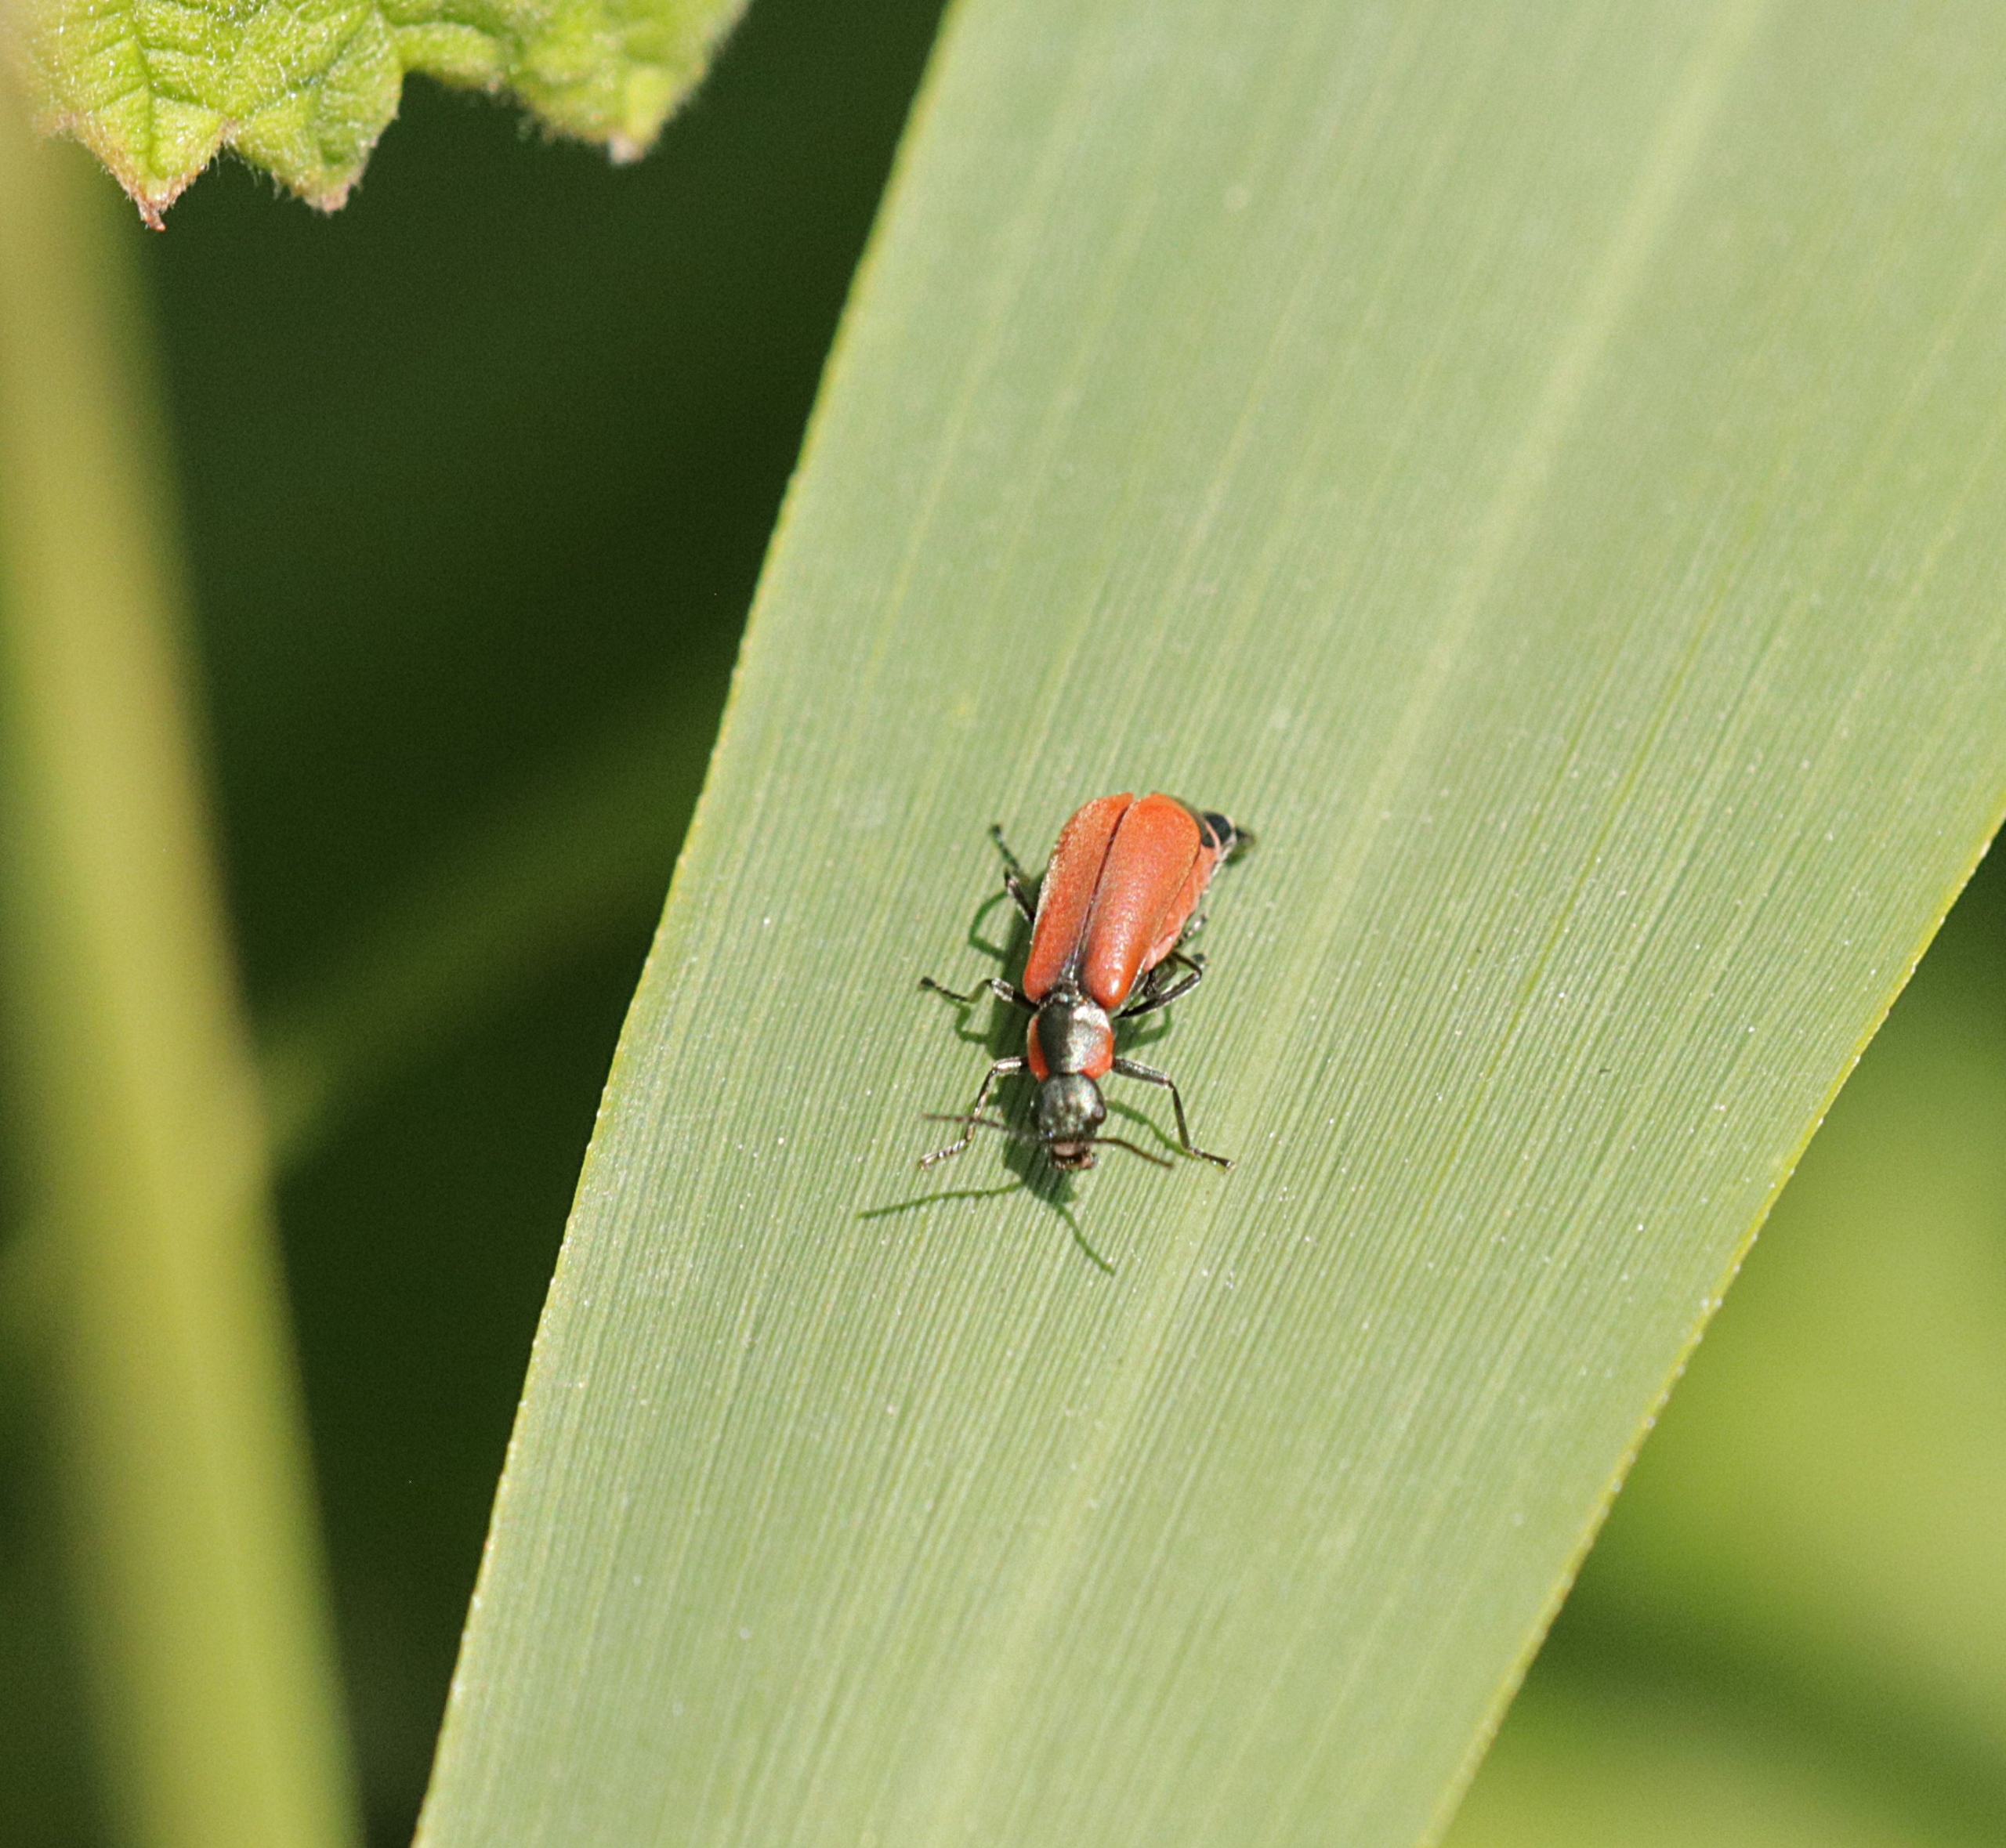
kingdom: Animalia
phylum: Arthropoda
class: Insecta
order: Coleoptera
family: Melyridae
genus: Anthocomus
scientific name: Anthocomus rufus
